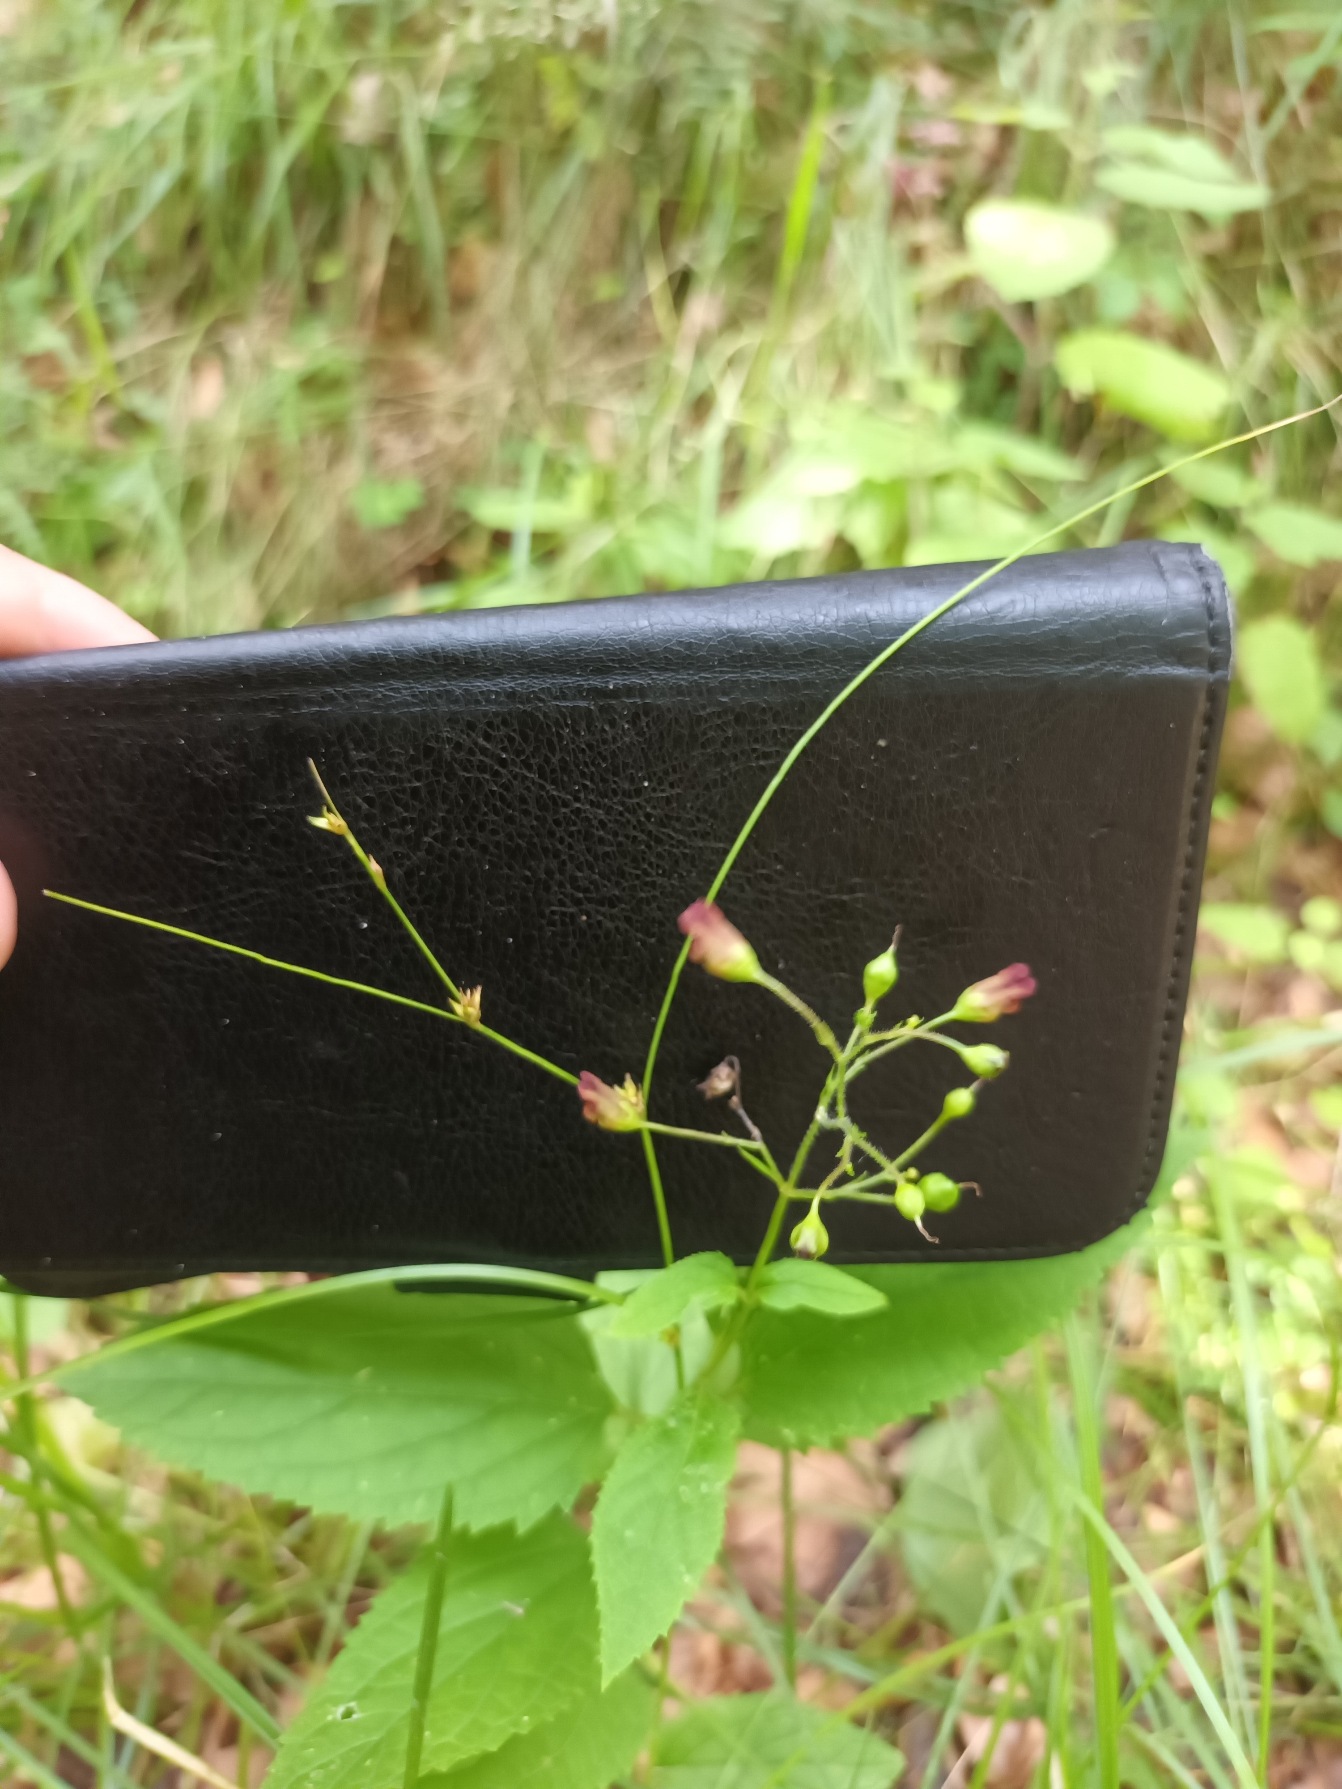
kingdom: Plantae
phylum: Tracheophyta
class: Magnoliopsida
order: Lamiales
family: Scrophulariaceae
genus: Scrophularia
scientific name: Scrophularia nodosa
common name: Knoldet brunrod
